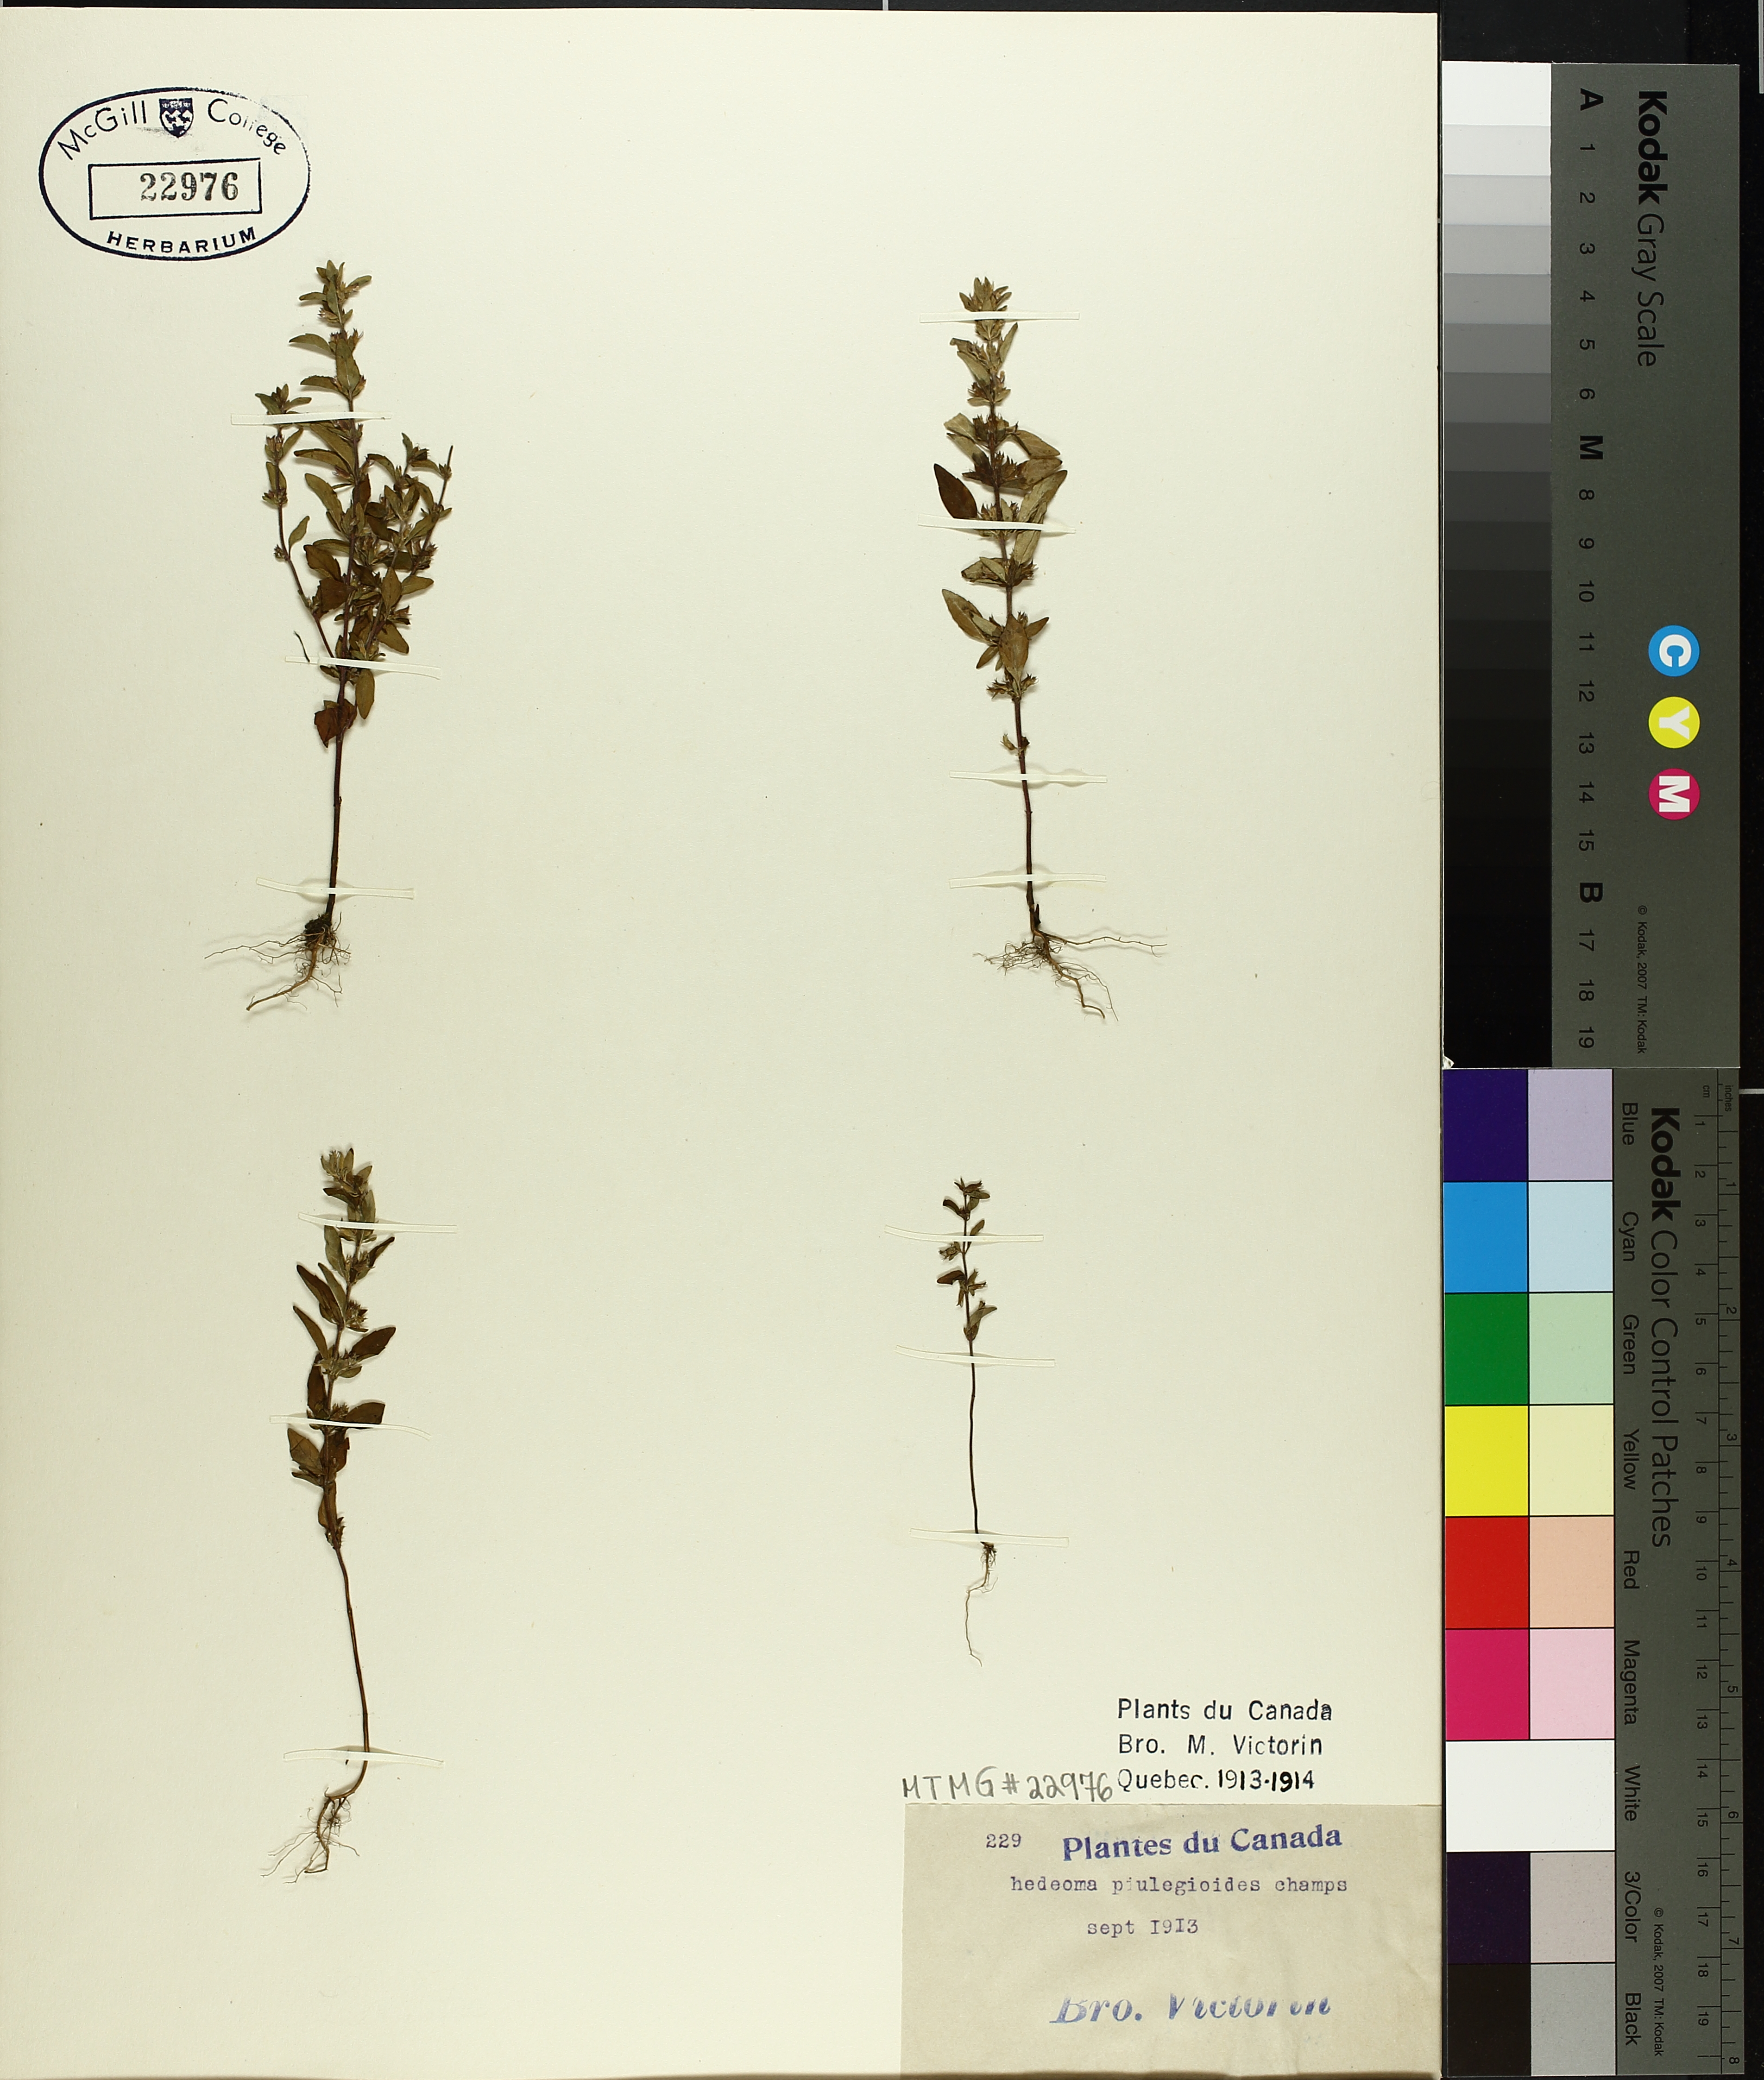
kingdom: Plantae
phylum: Tracheophyta
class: Magnoliopsida
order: Lamiales
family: Lamiaceae
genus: Hedeoma
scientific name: Hedeoma pulegioides
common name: American false pennyroyal
